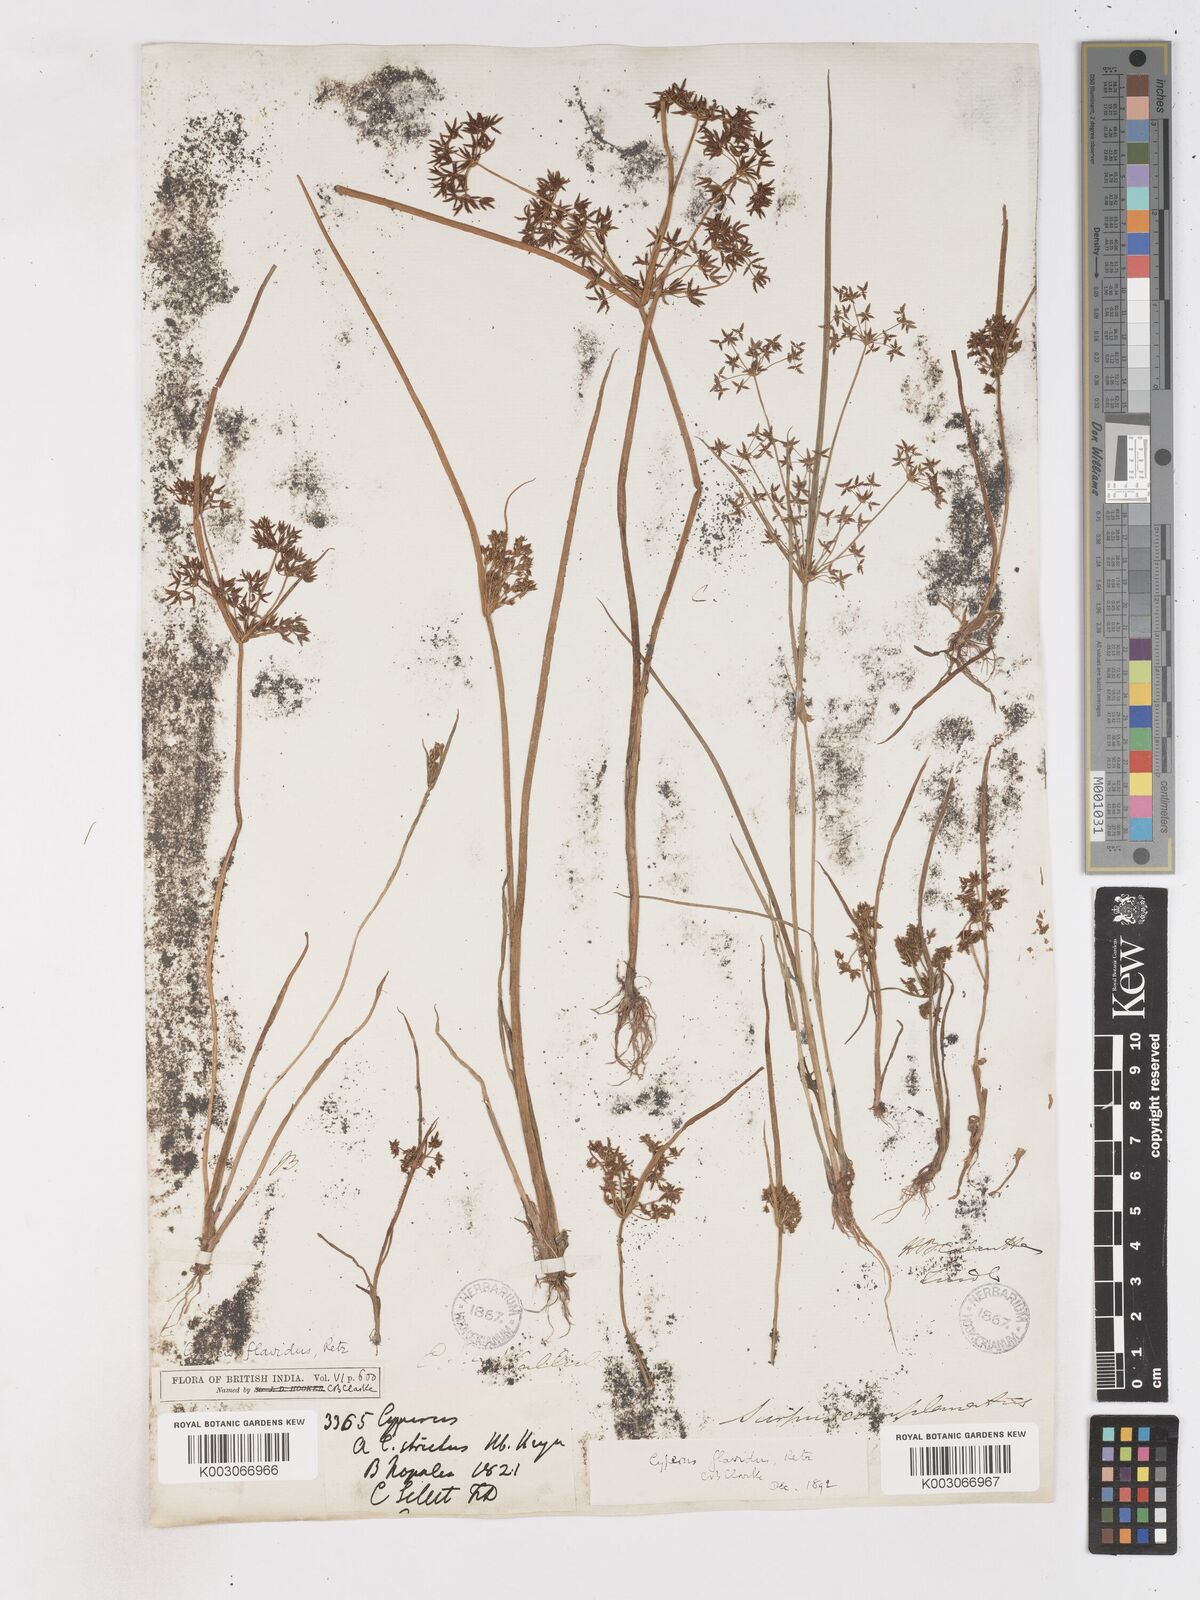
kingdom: Plantae
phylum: Tracheophyta
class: Liliopsida
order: Poales
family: Cyperaceae
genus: Cyperus
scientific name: Cyperus tenuispica
